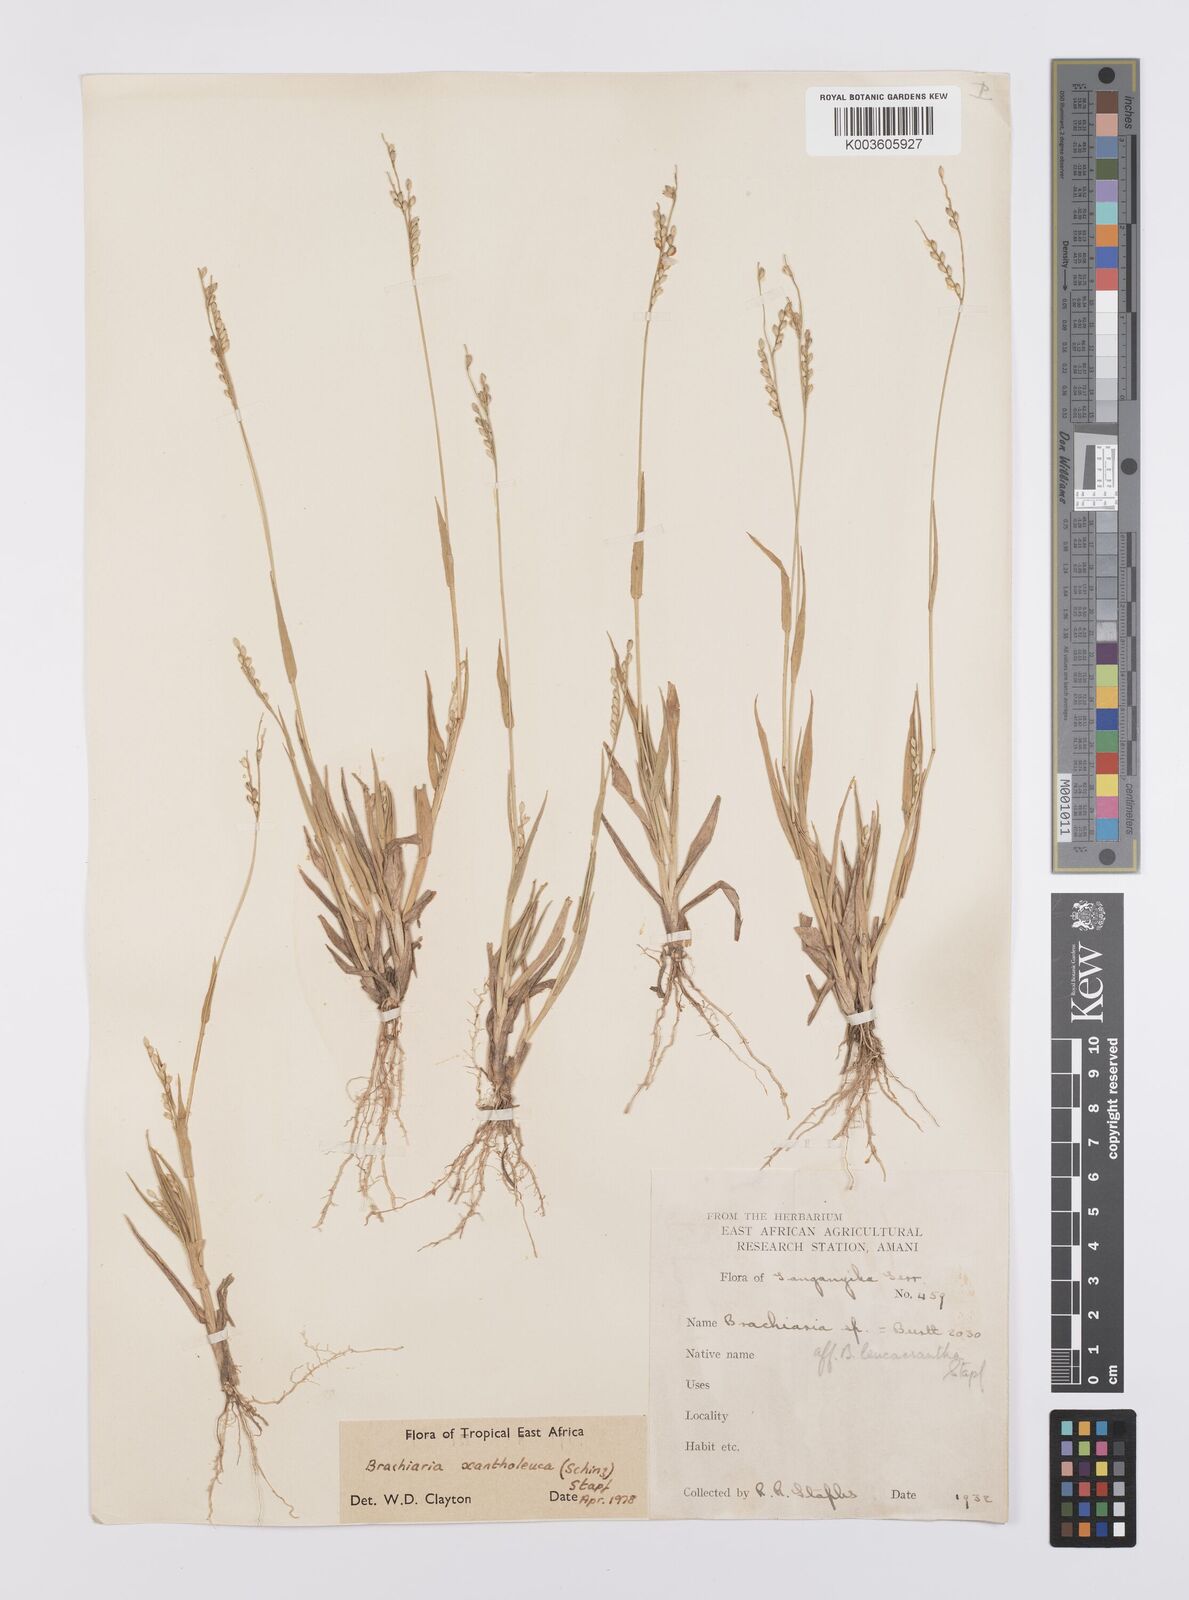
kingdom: Plantae
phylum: Tracheophyta
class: Liliopsida
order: Poales
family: Poaceae
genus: Urochloa
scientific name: Urochloa xantholeuca
